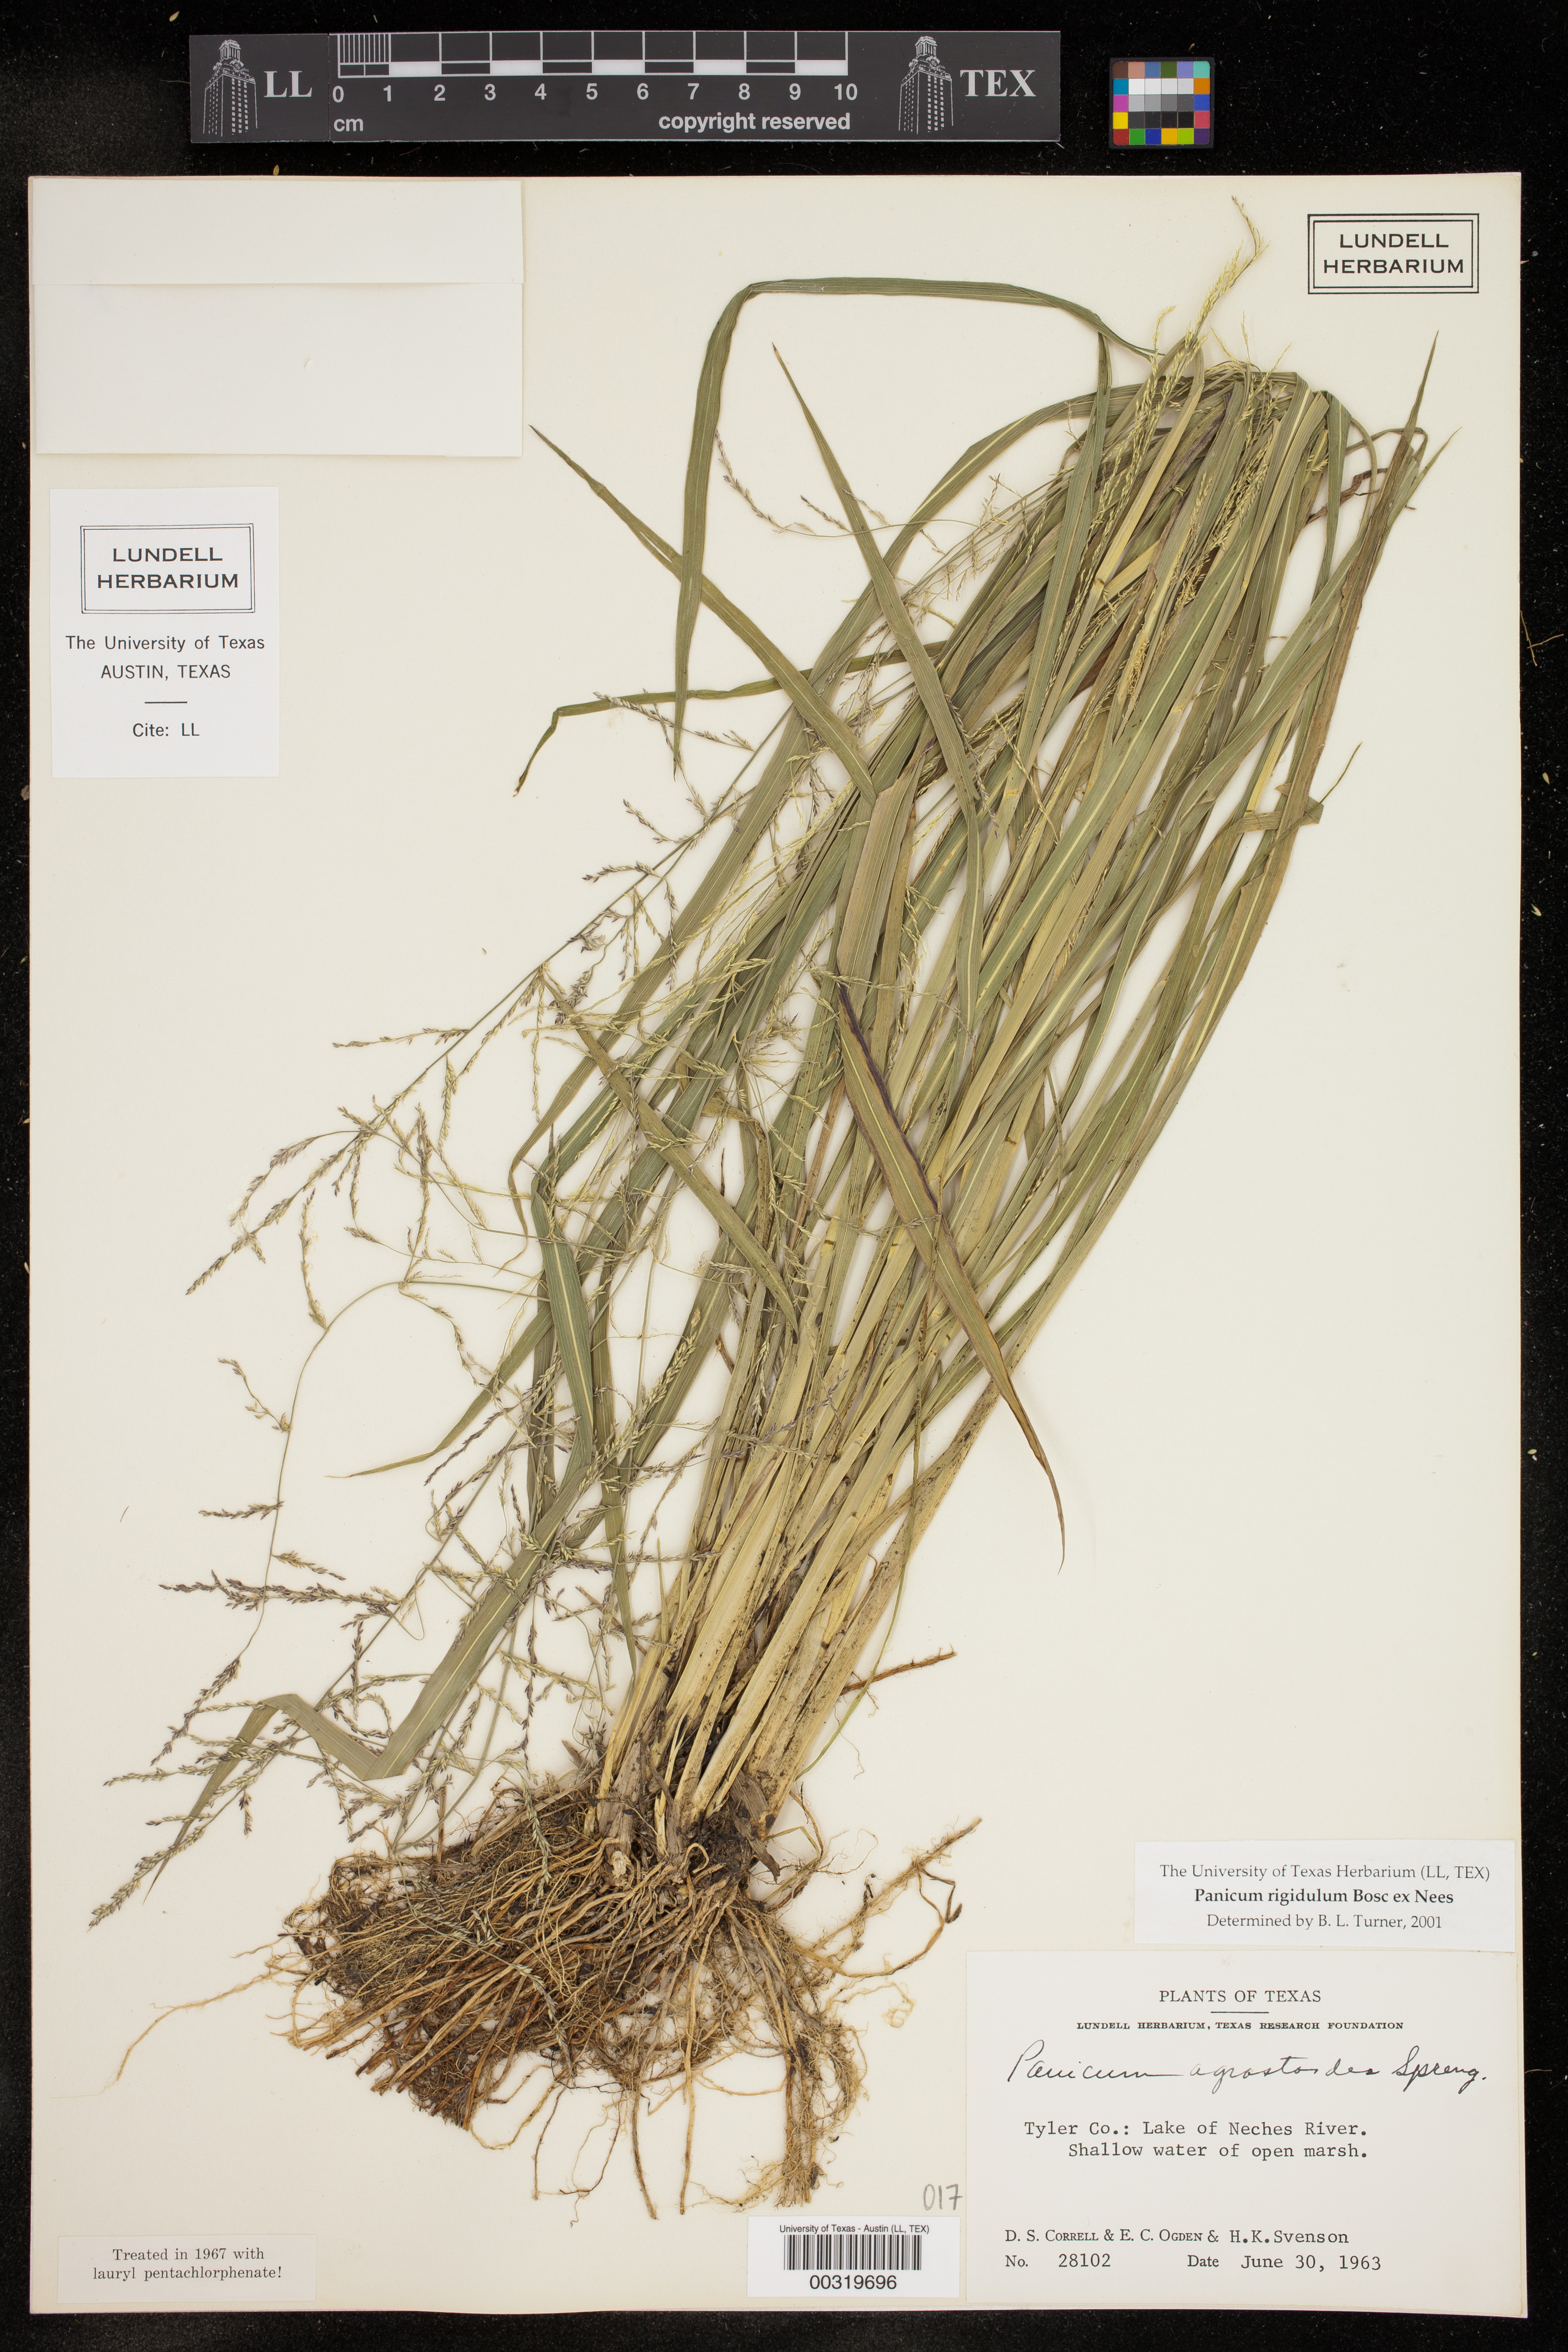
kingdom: Plantae
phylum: Tracheophyta
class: Liliopsida
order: Poales
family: Poaceae
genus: Coleataenia
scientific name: Coleataenia rigidula
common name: Redtop panicgrass
